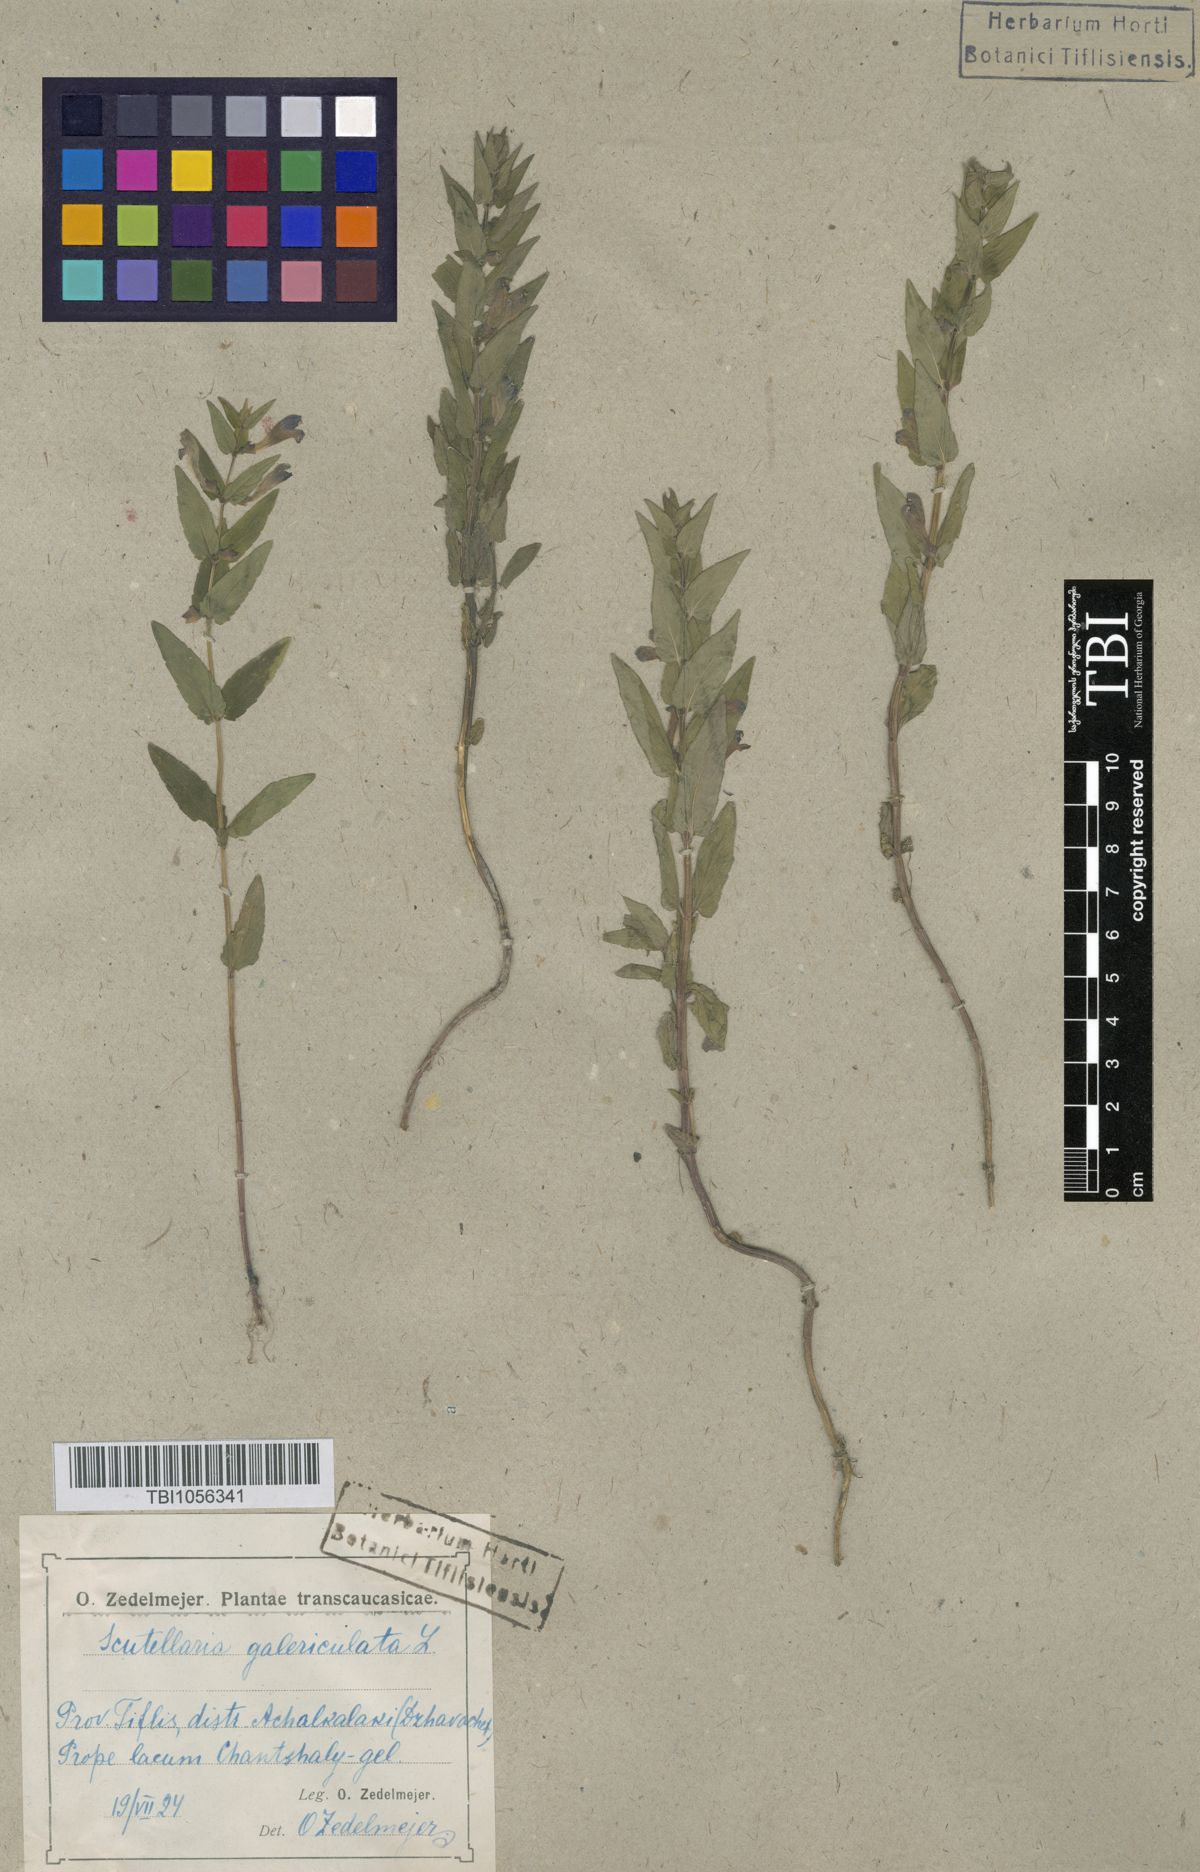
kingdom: Plantae
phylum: Tracheophyta
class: Magnoliopsida
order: Lamiales
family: Lamiaceae
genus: Scutellaria
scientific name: Scutellaria galericulata
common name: Skullcap
